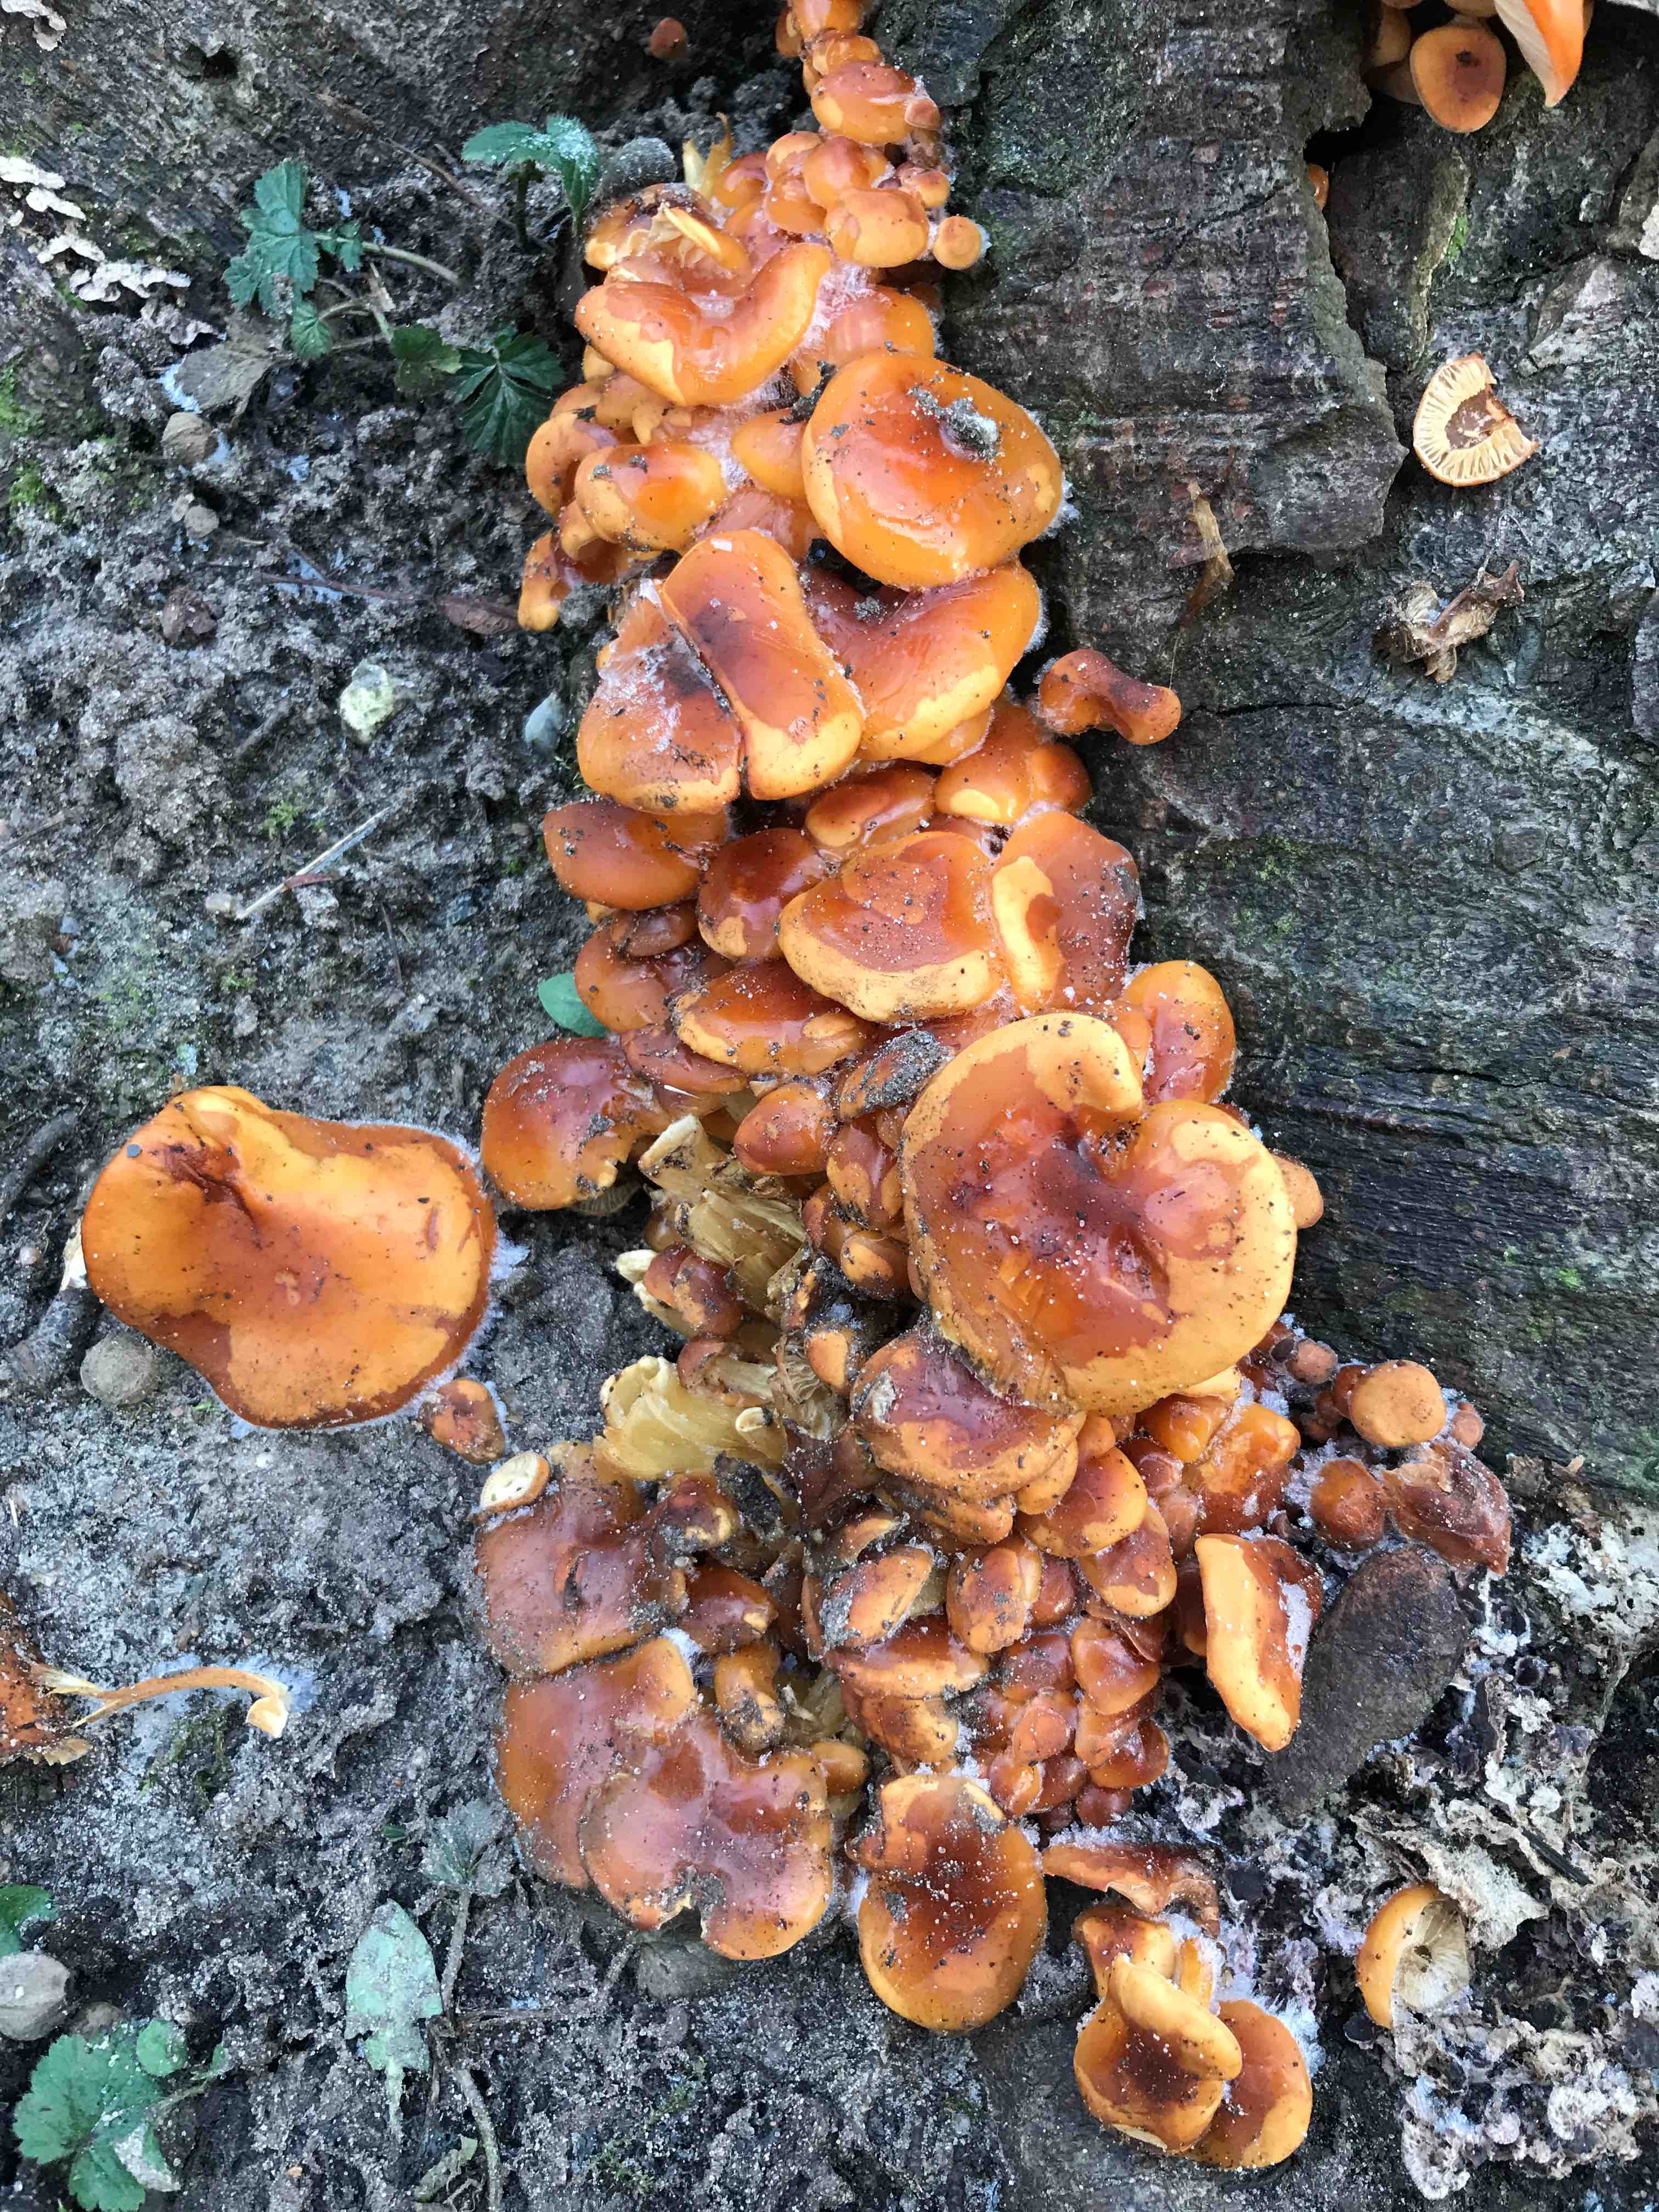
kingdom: Fungi
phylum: Basidiomycota
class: Agaricomycetes
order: Agaricales
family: Physalacriaceae
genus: Flammulina
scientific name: Flammulina velutipes
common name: gul fløjlsfod
